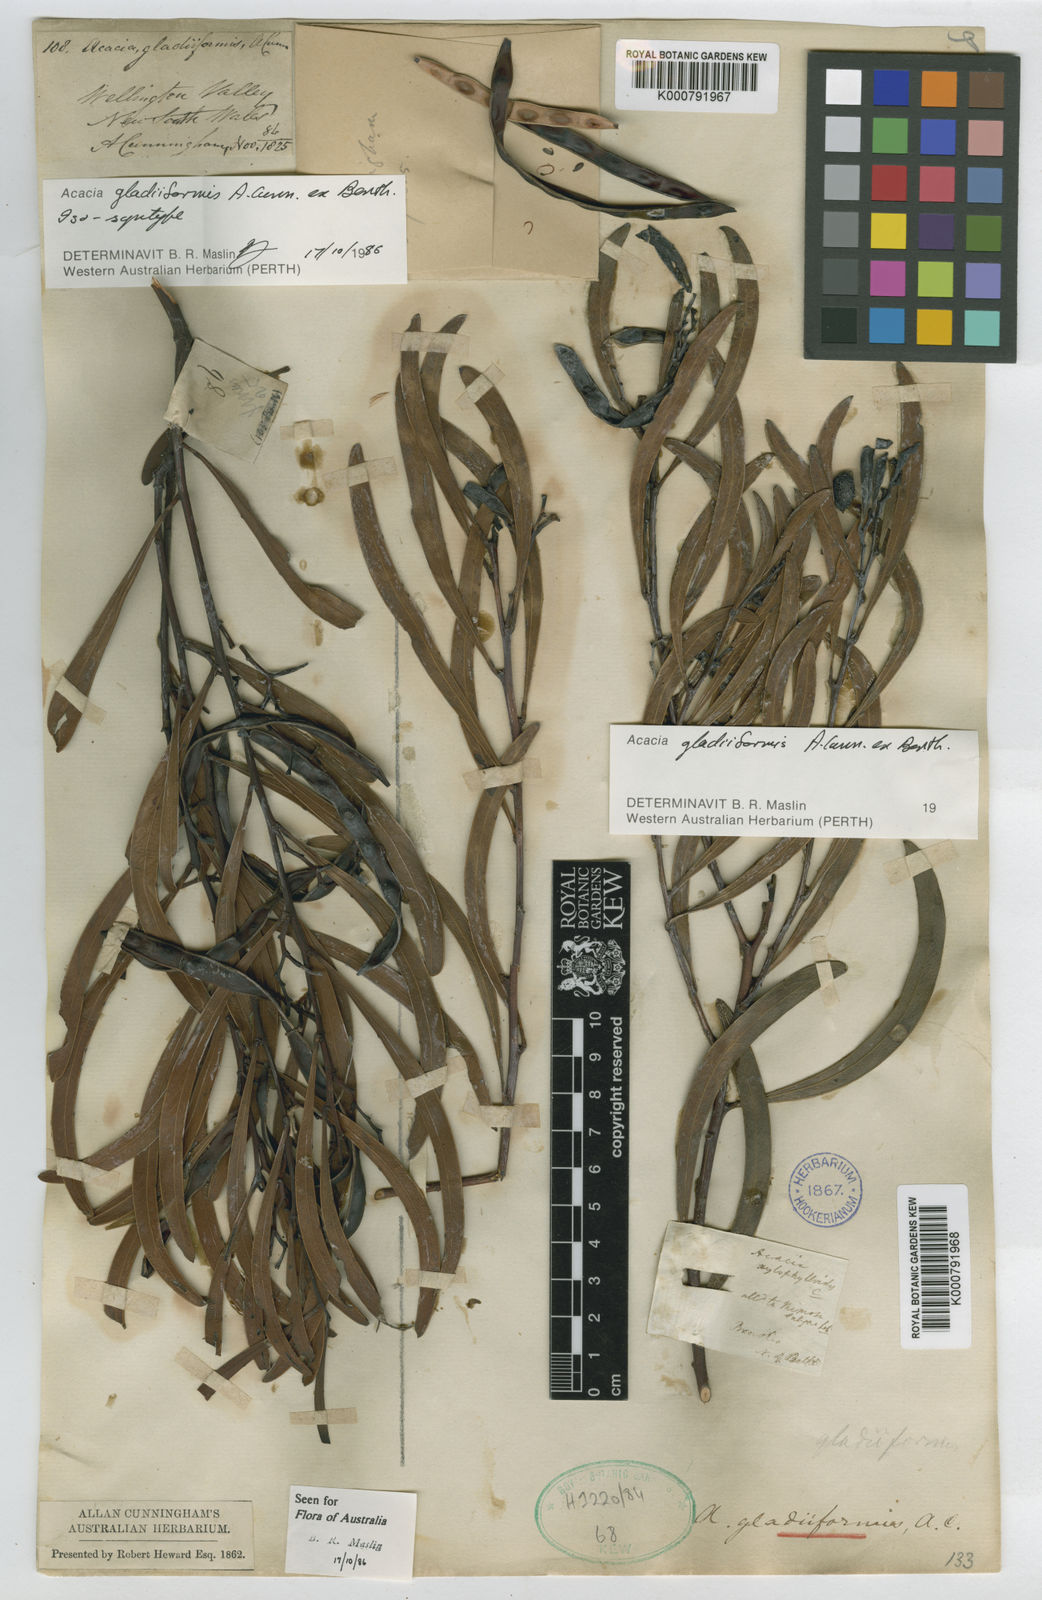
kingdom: Plantae
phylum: Tracheophyta
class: Magnoliopsida
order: Fabales
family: Fabaceae
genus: Acacia
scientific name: Acacia gladiiformis
